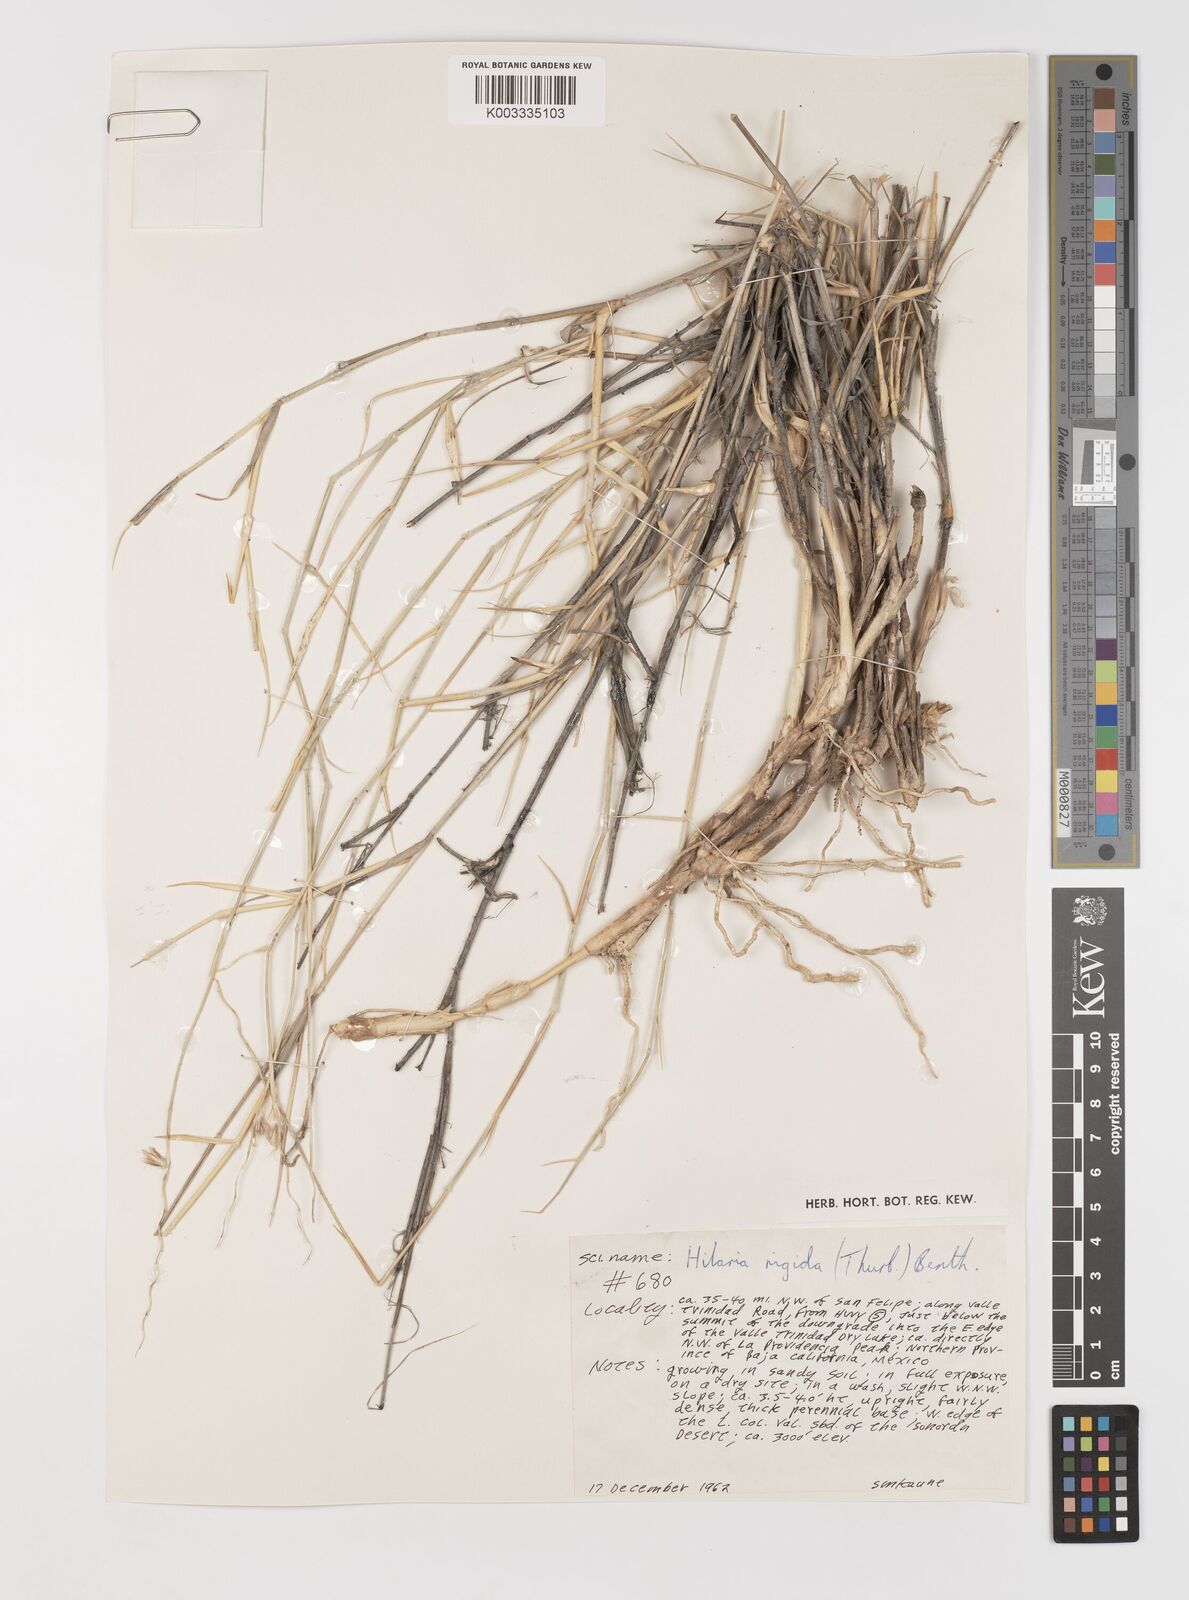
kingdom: Plantae
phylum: Tracheophyta
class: Liliopsida
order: Poales
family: Poaceae
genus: Hilaria
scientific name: Hilaria rigida
